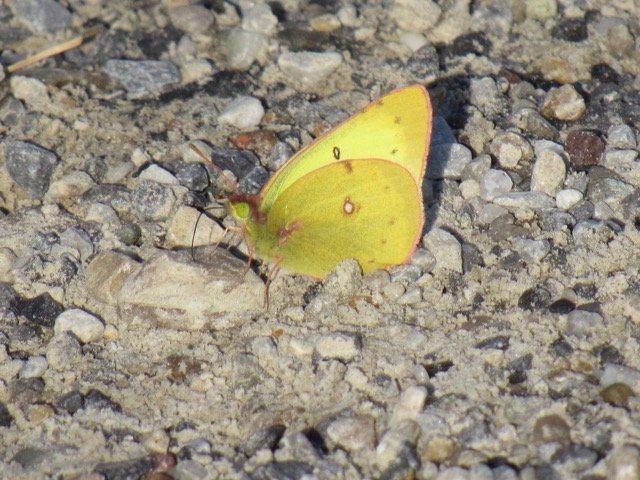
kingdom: Animalia
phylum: Arthropoda
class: Insecta
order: Lepidoptera
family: Pieridae
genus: Colias
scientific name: Colias philodice
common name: Clouded Sulphur
